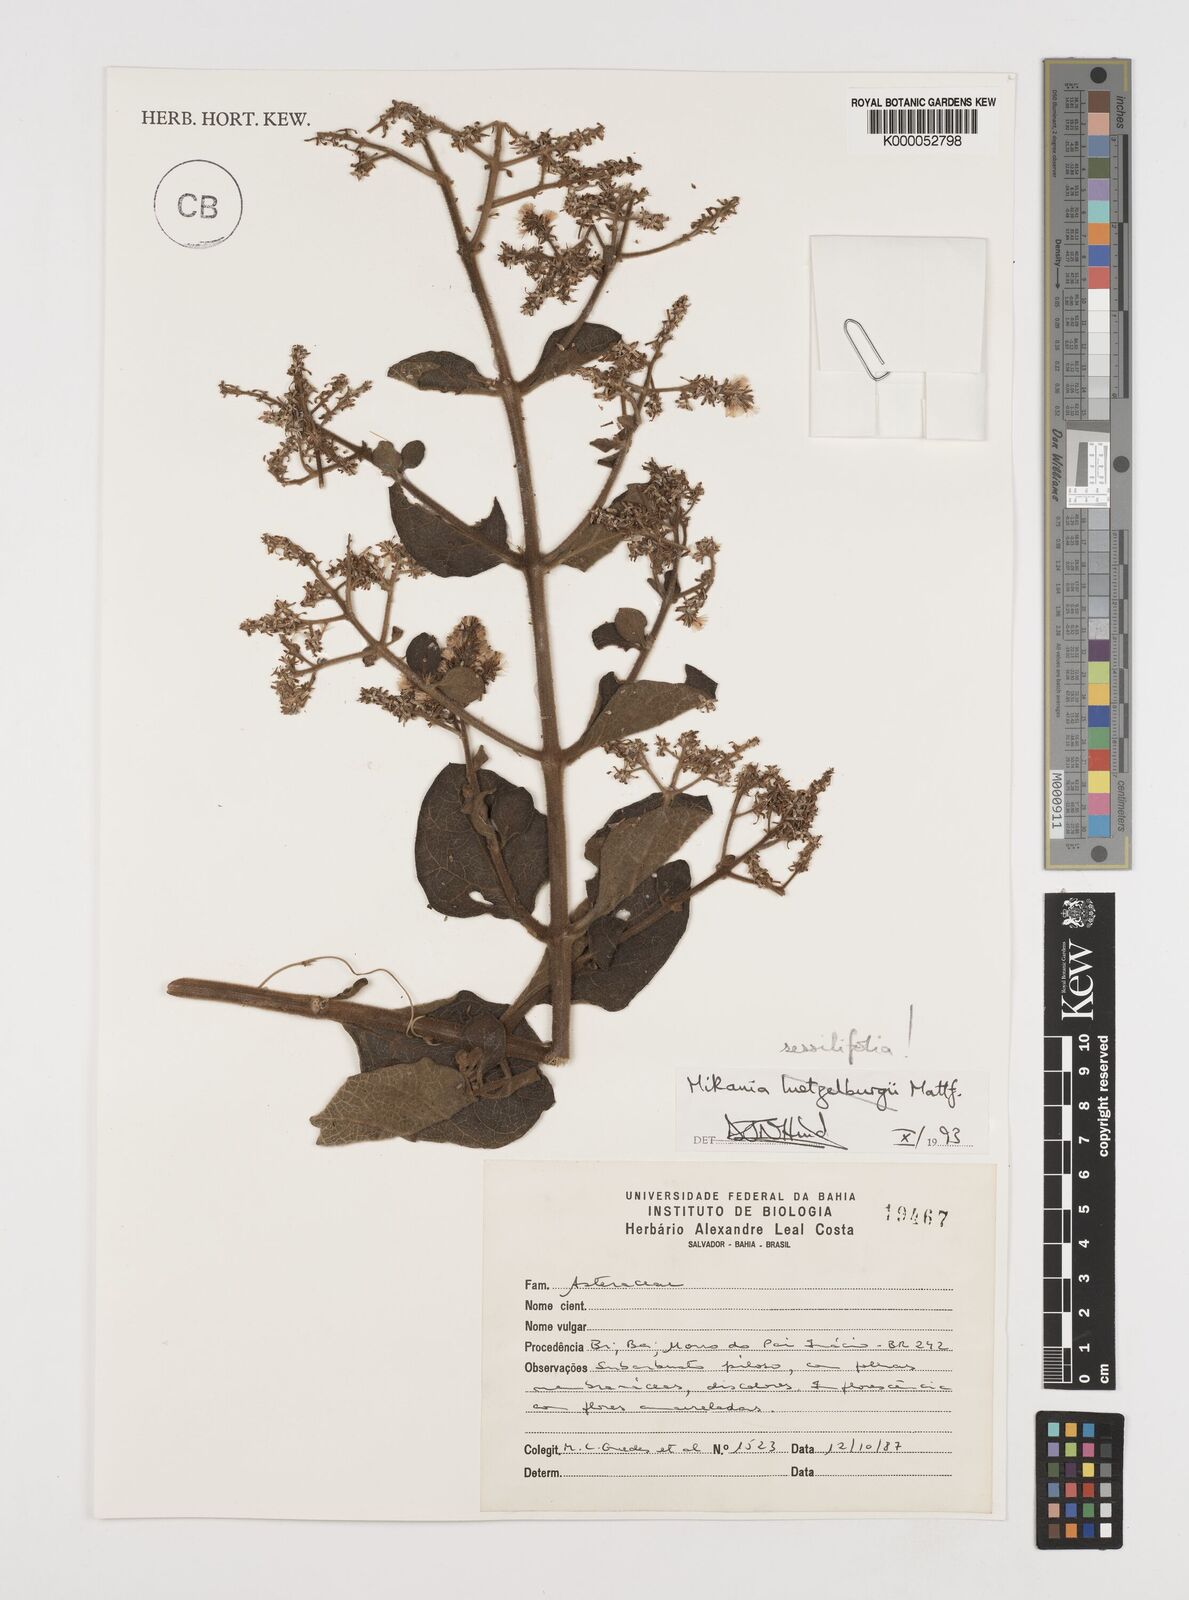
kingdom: Plantae
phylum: Tracheophyta
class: Magnoliopsida
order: Asterales
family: Asteraceae
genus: Mikania
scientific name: Mikania sessilifolia
